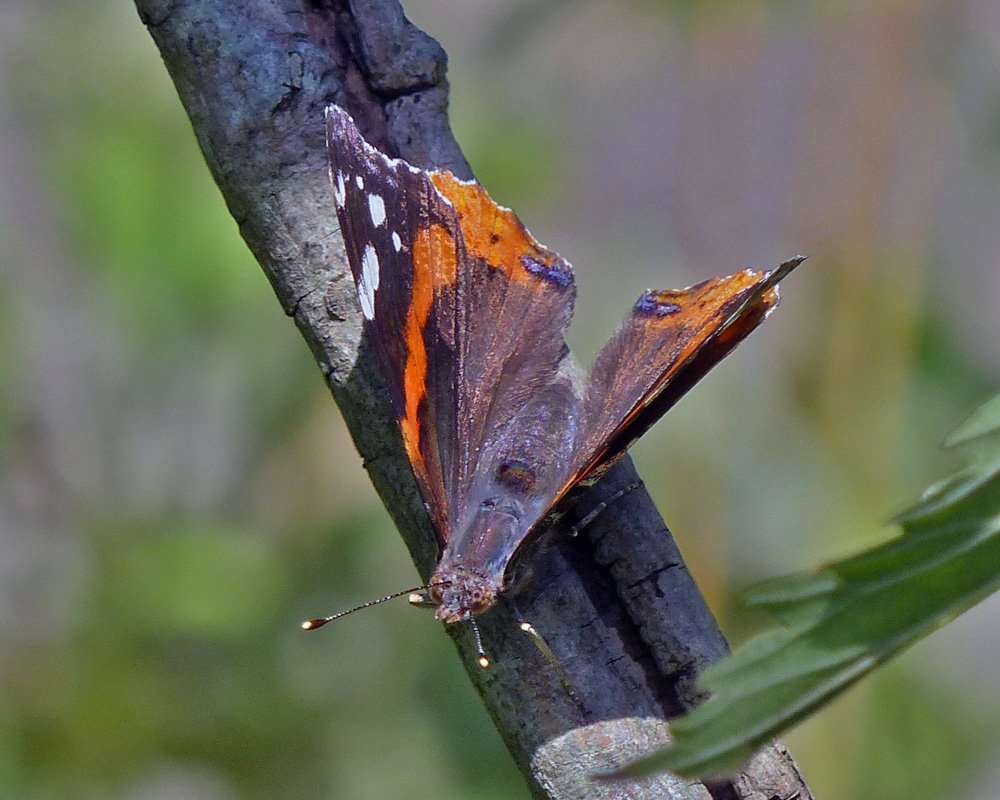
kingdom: Animalia
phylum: Arthropoda
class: Insecta
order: Lepidoptera
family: Nymphalidae
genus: Vanessa
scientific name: Vanessa atalanta
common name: Red Admiral
